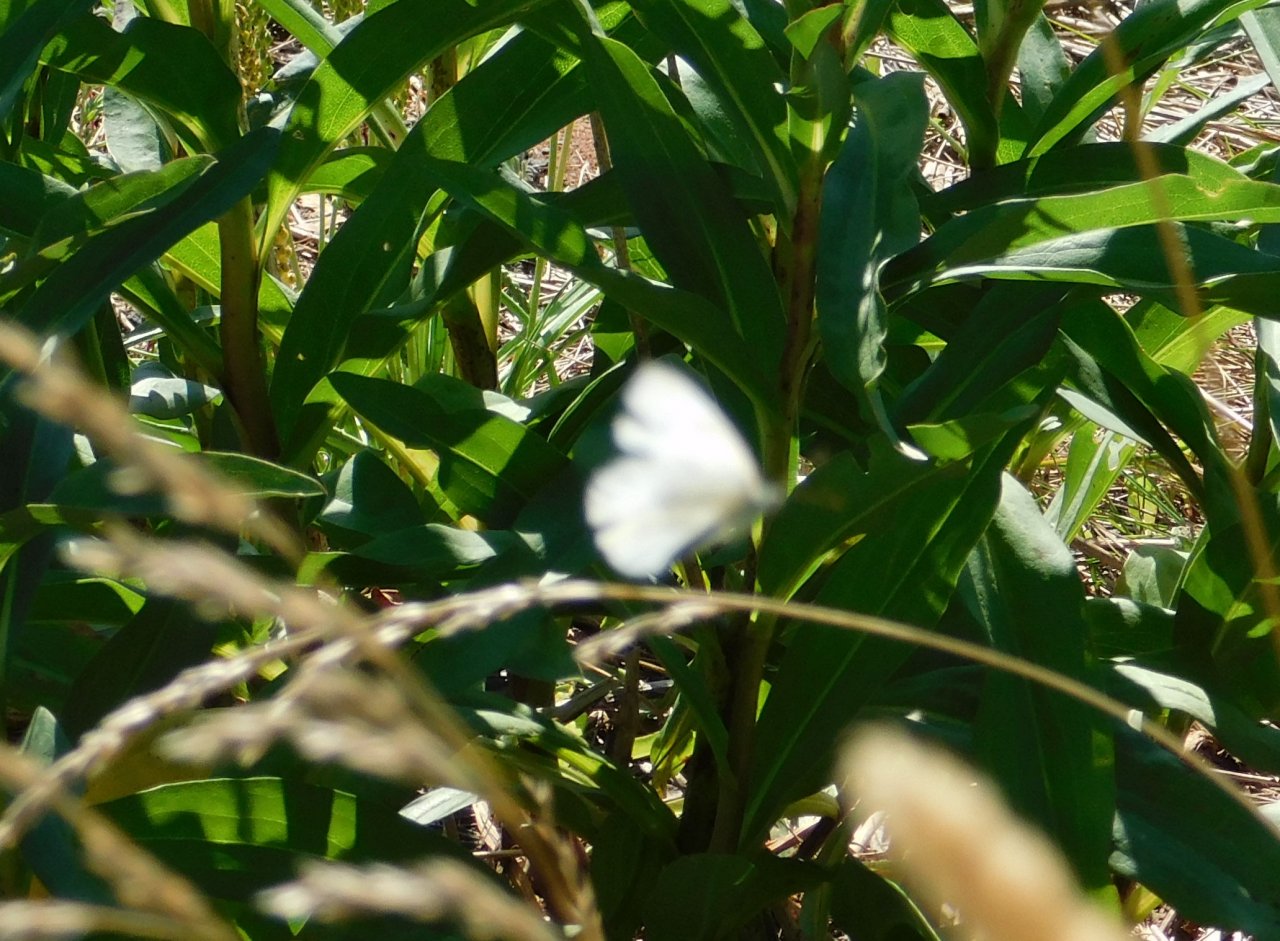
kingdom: Animalia
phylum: Arthropoda
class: Insecta
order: Lepidoptera
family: Pieridae
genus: Pieris
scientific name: Pieris rapae
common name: Cabbage White
